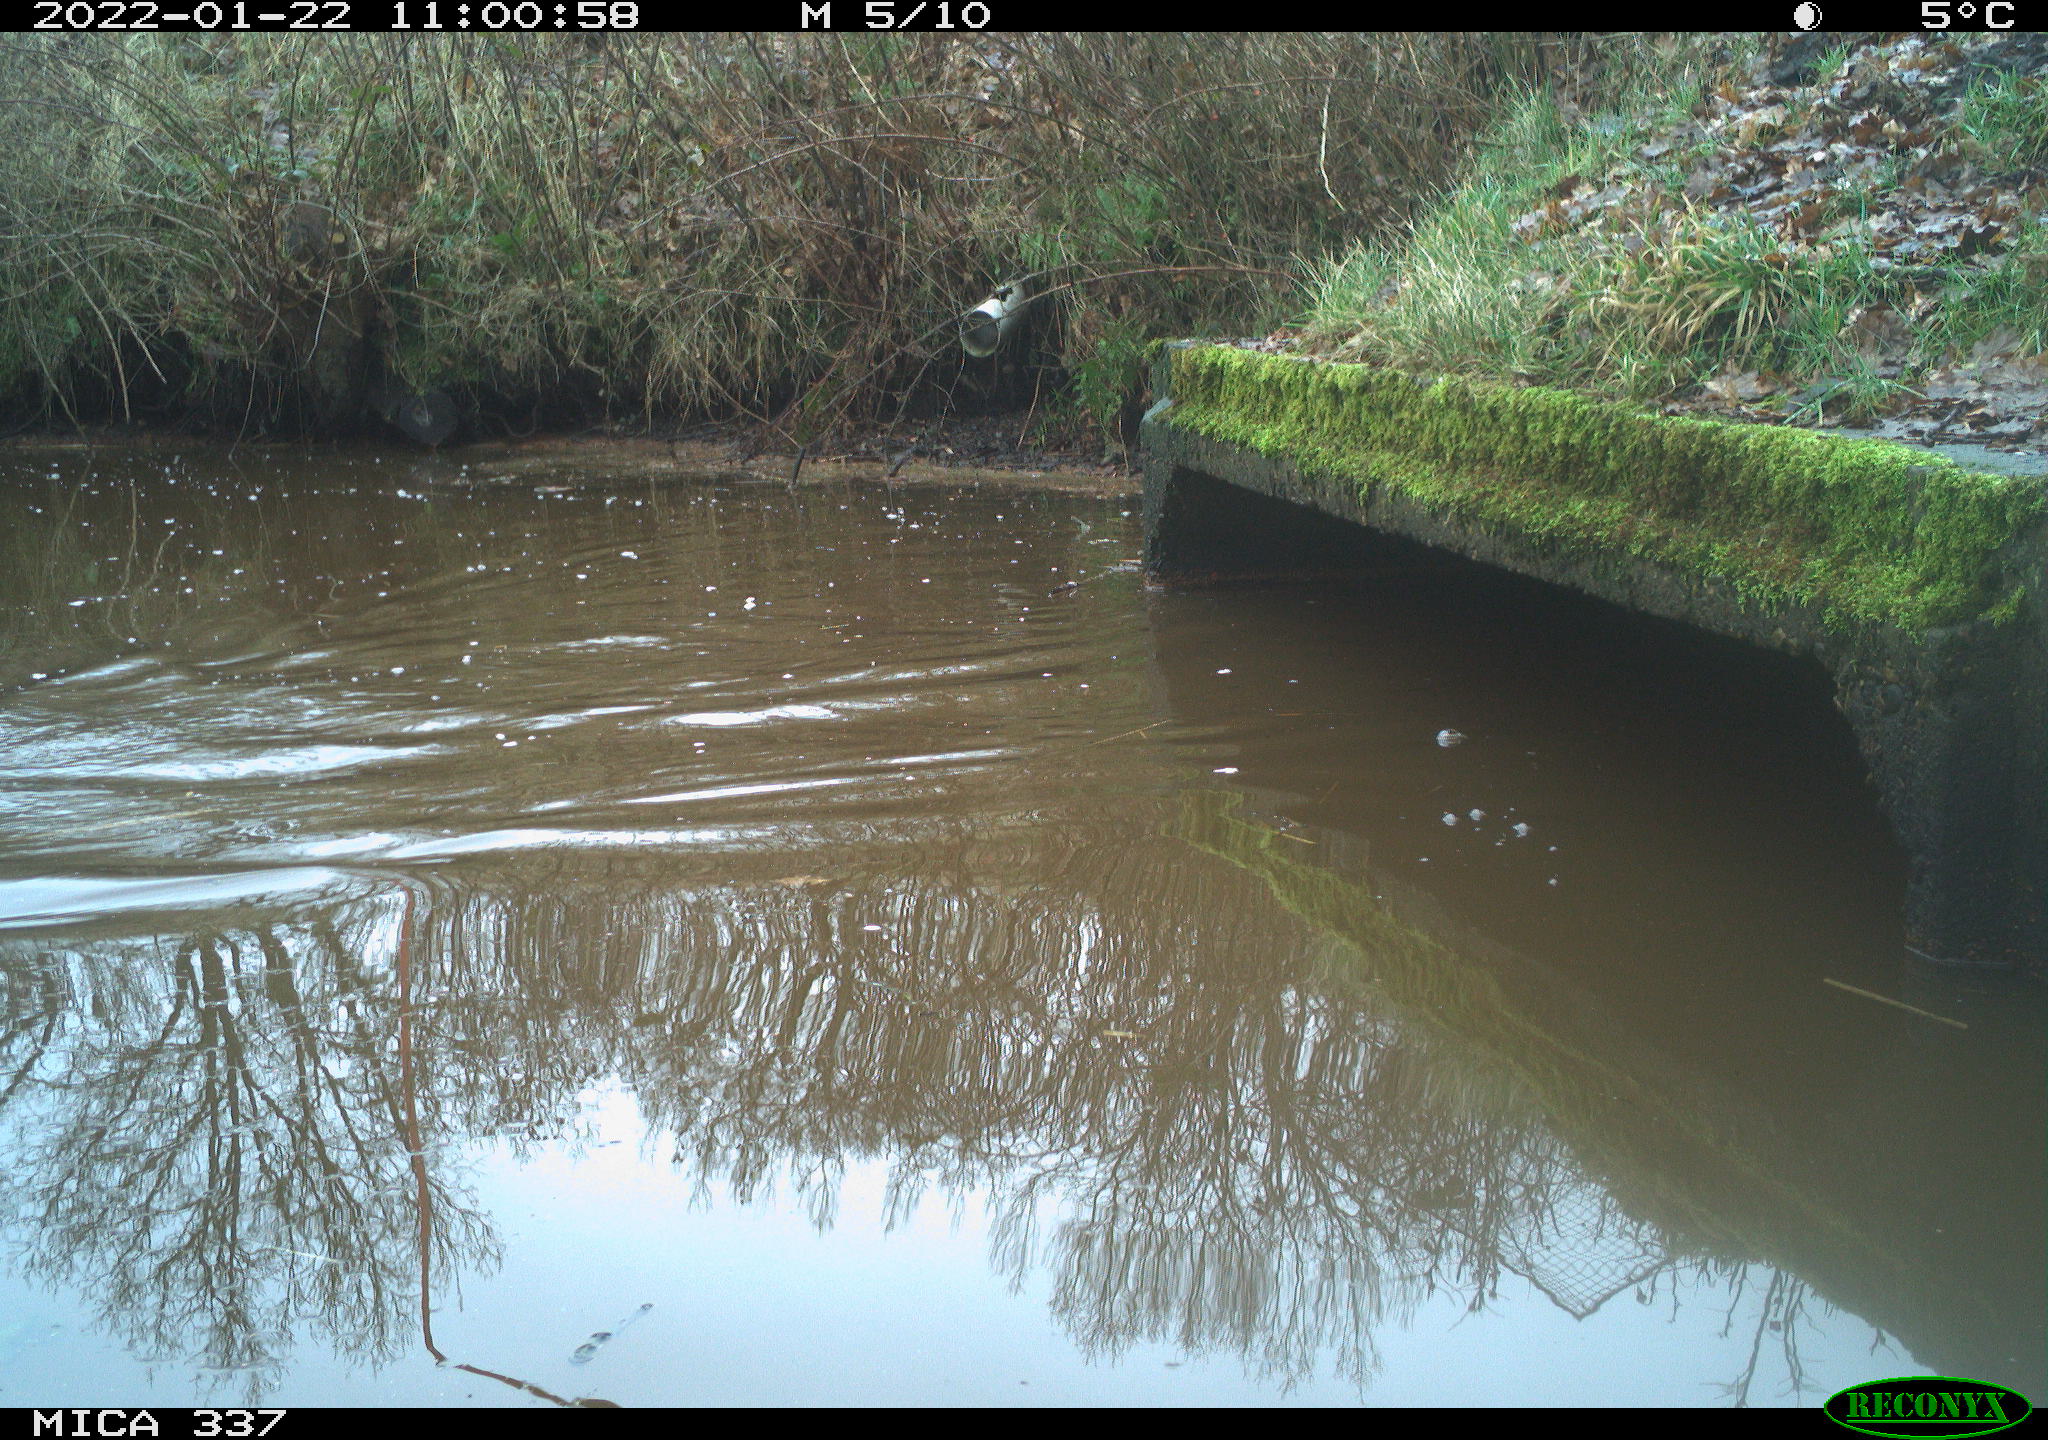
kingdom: Animalia
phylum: Chordata
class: Aves
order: Anseriformes
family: Anatidae
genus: Anas
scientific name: Anas platyrhynchos
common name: Mallard
